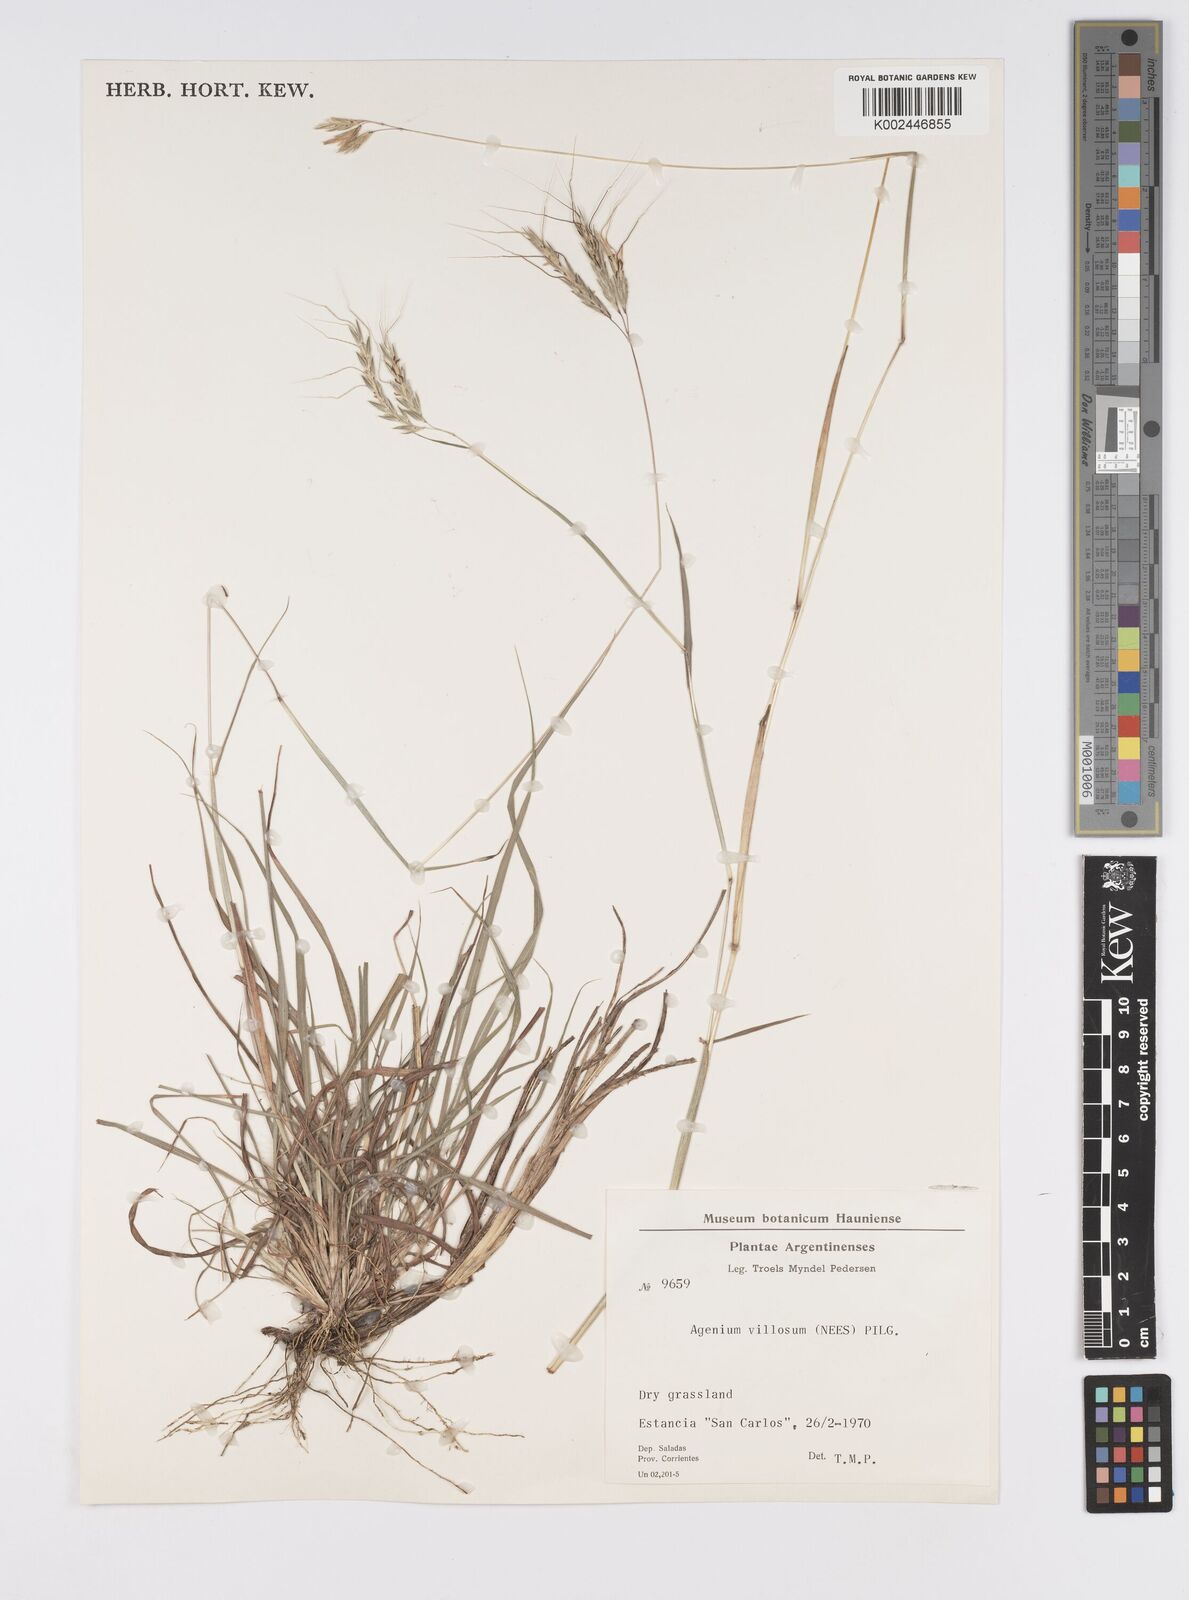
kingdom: Plantae
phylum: Tracheophyta
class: Liliopsida
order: Poales
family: Poaceae
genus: Agenium
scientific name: Agenium villosum
